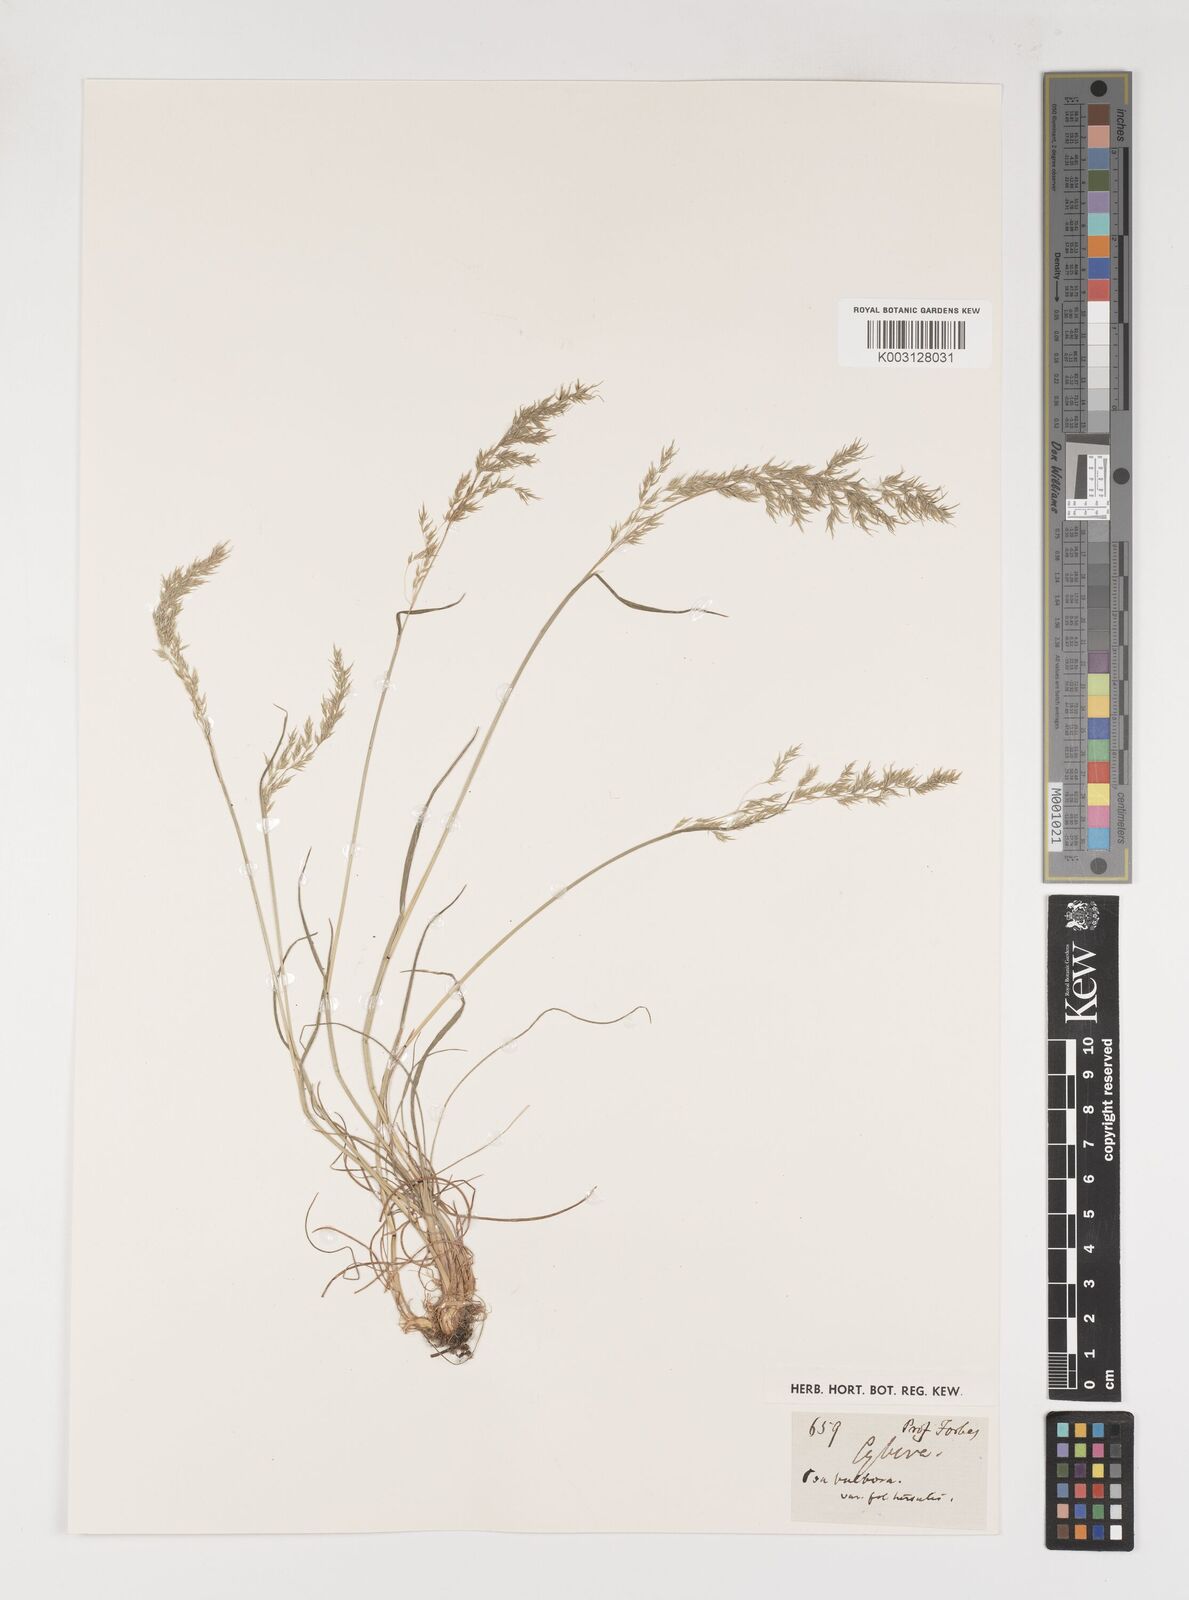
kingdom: Plantae
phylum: Tracheophyta
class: Liliopsida
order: Poales
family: Poaceae
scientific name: Poaceae
